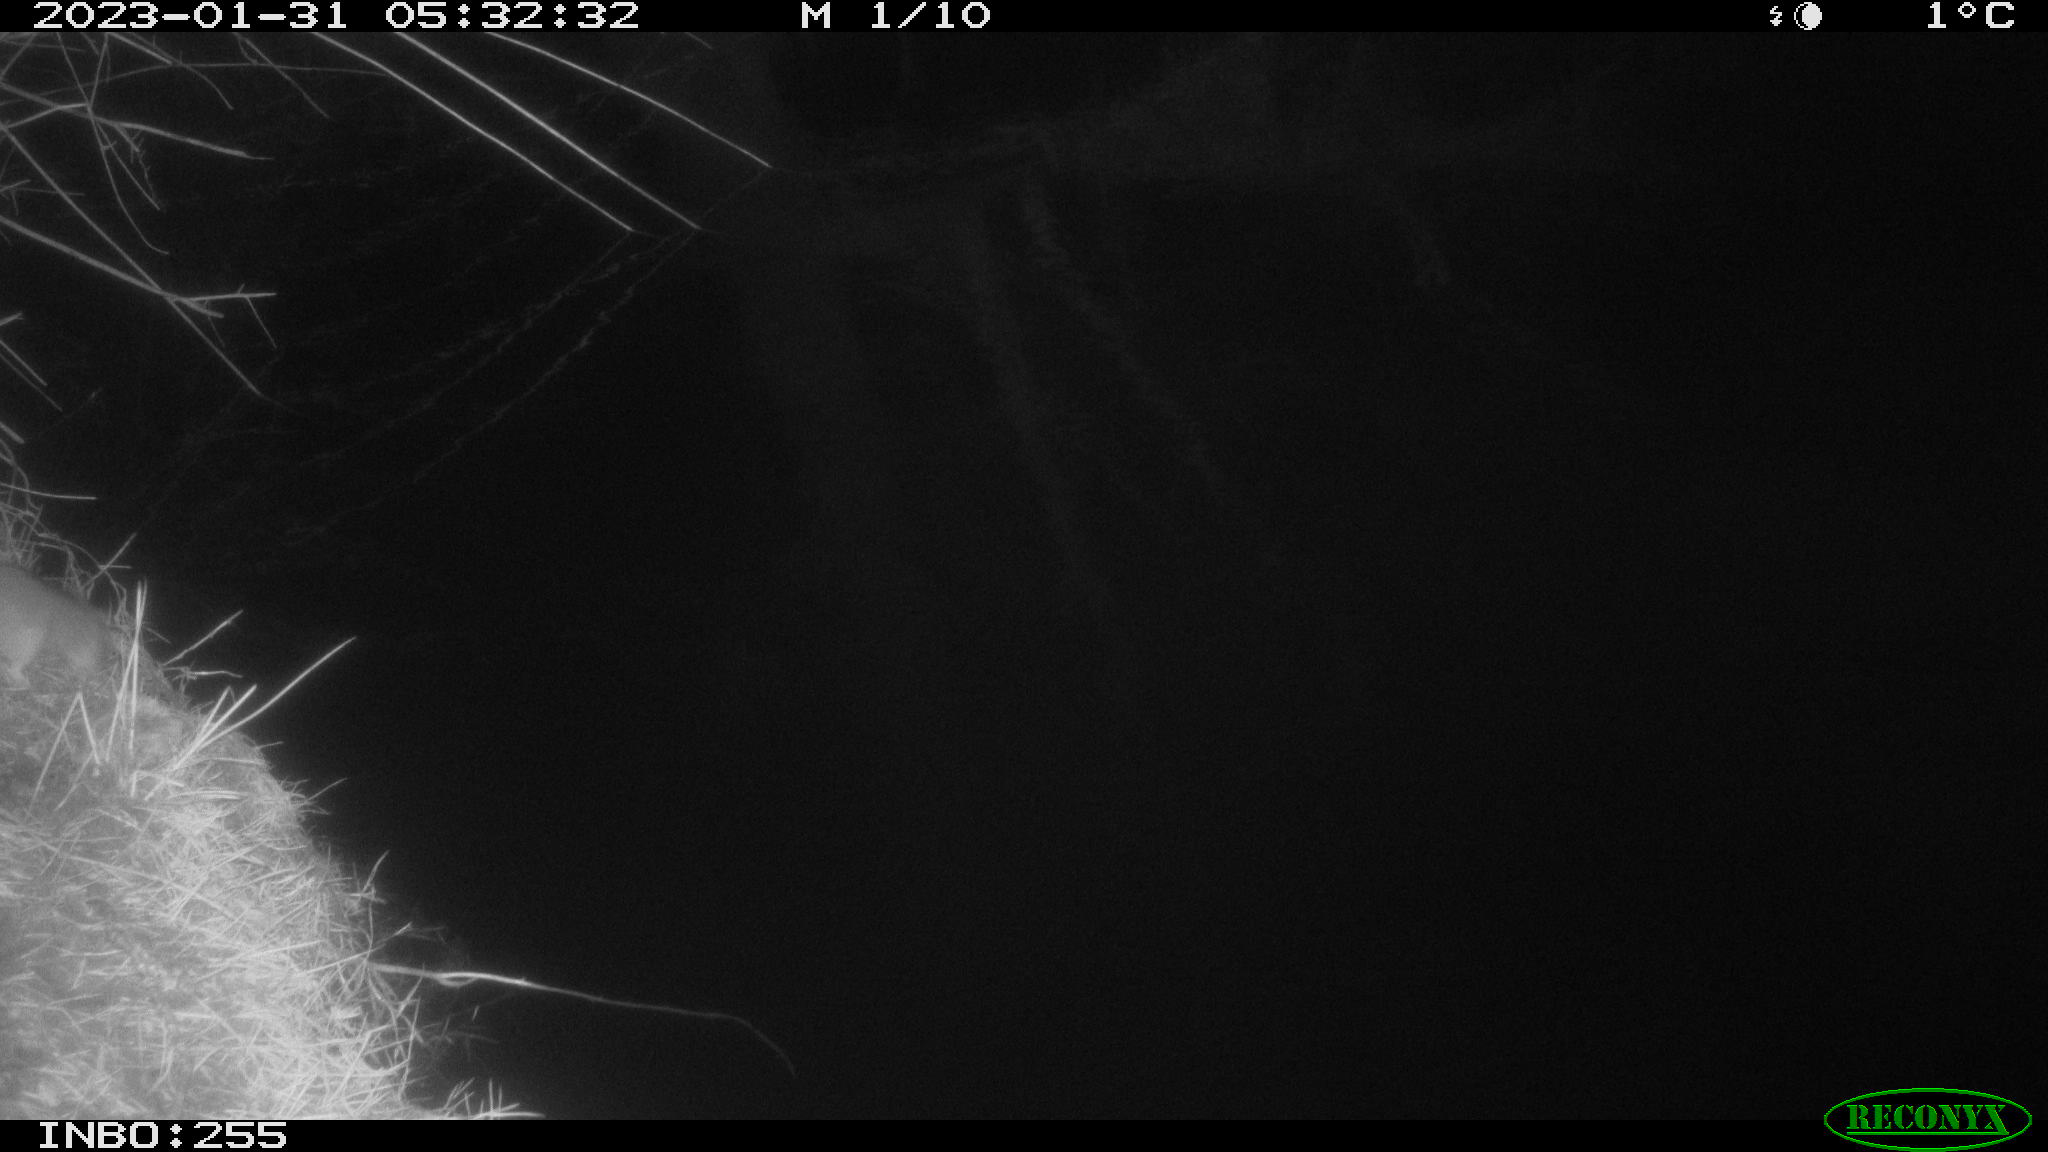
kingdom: Animalia
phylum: Chordata
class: Mammalia
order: Rodentia
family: Muridae
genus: Rattus
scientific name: Rattus norvegicus
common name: Brown rat
